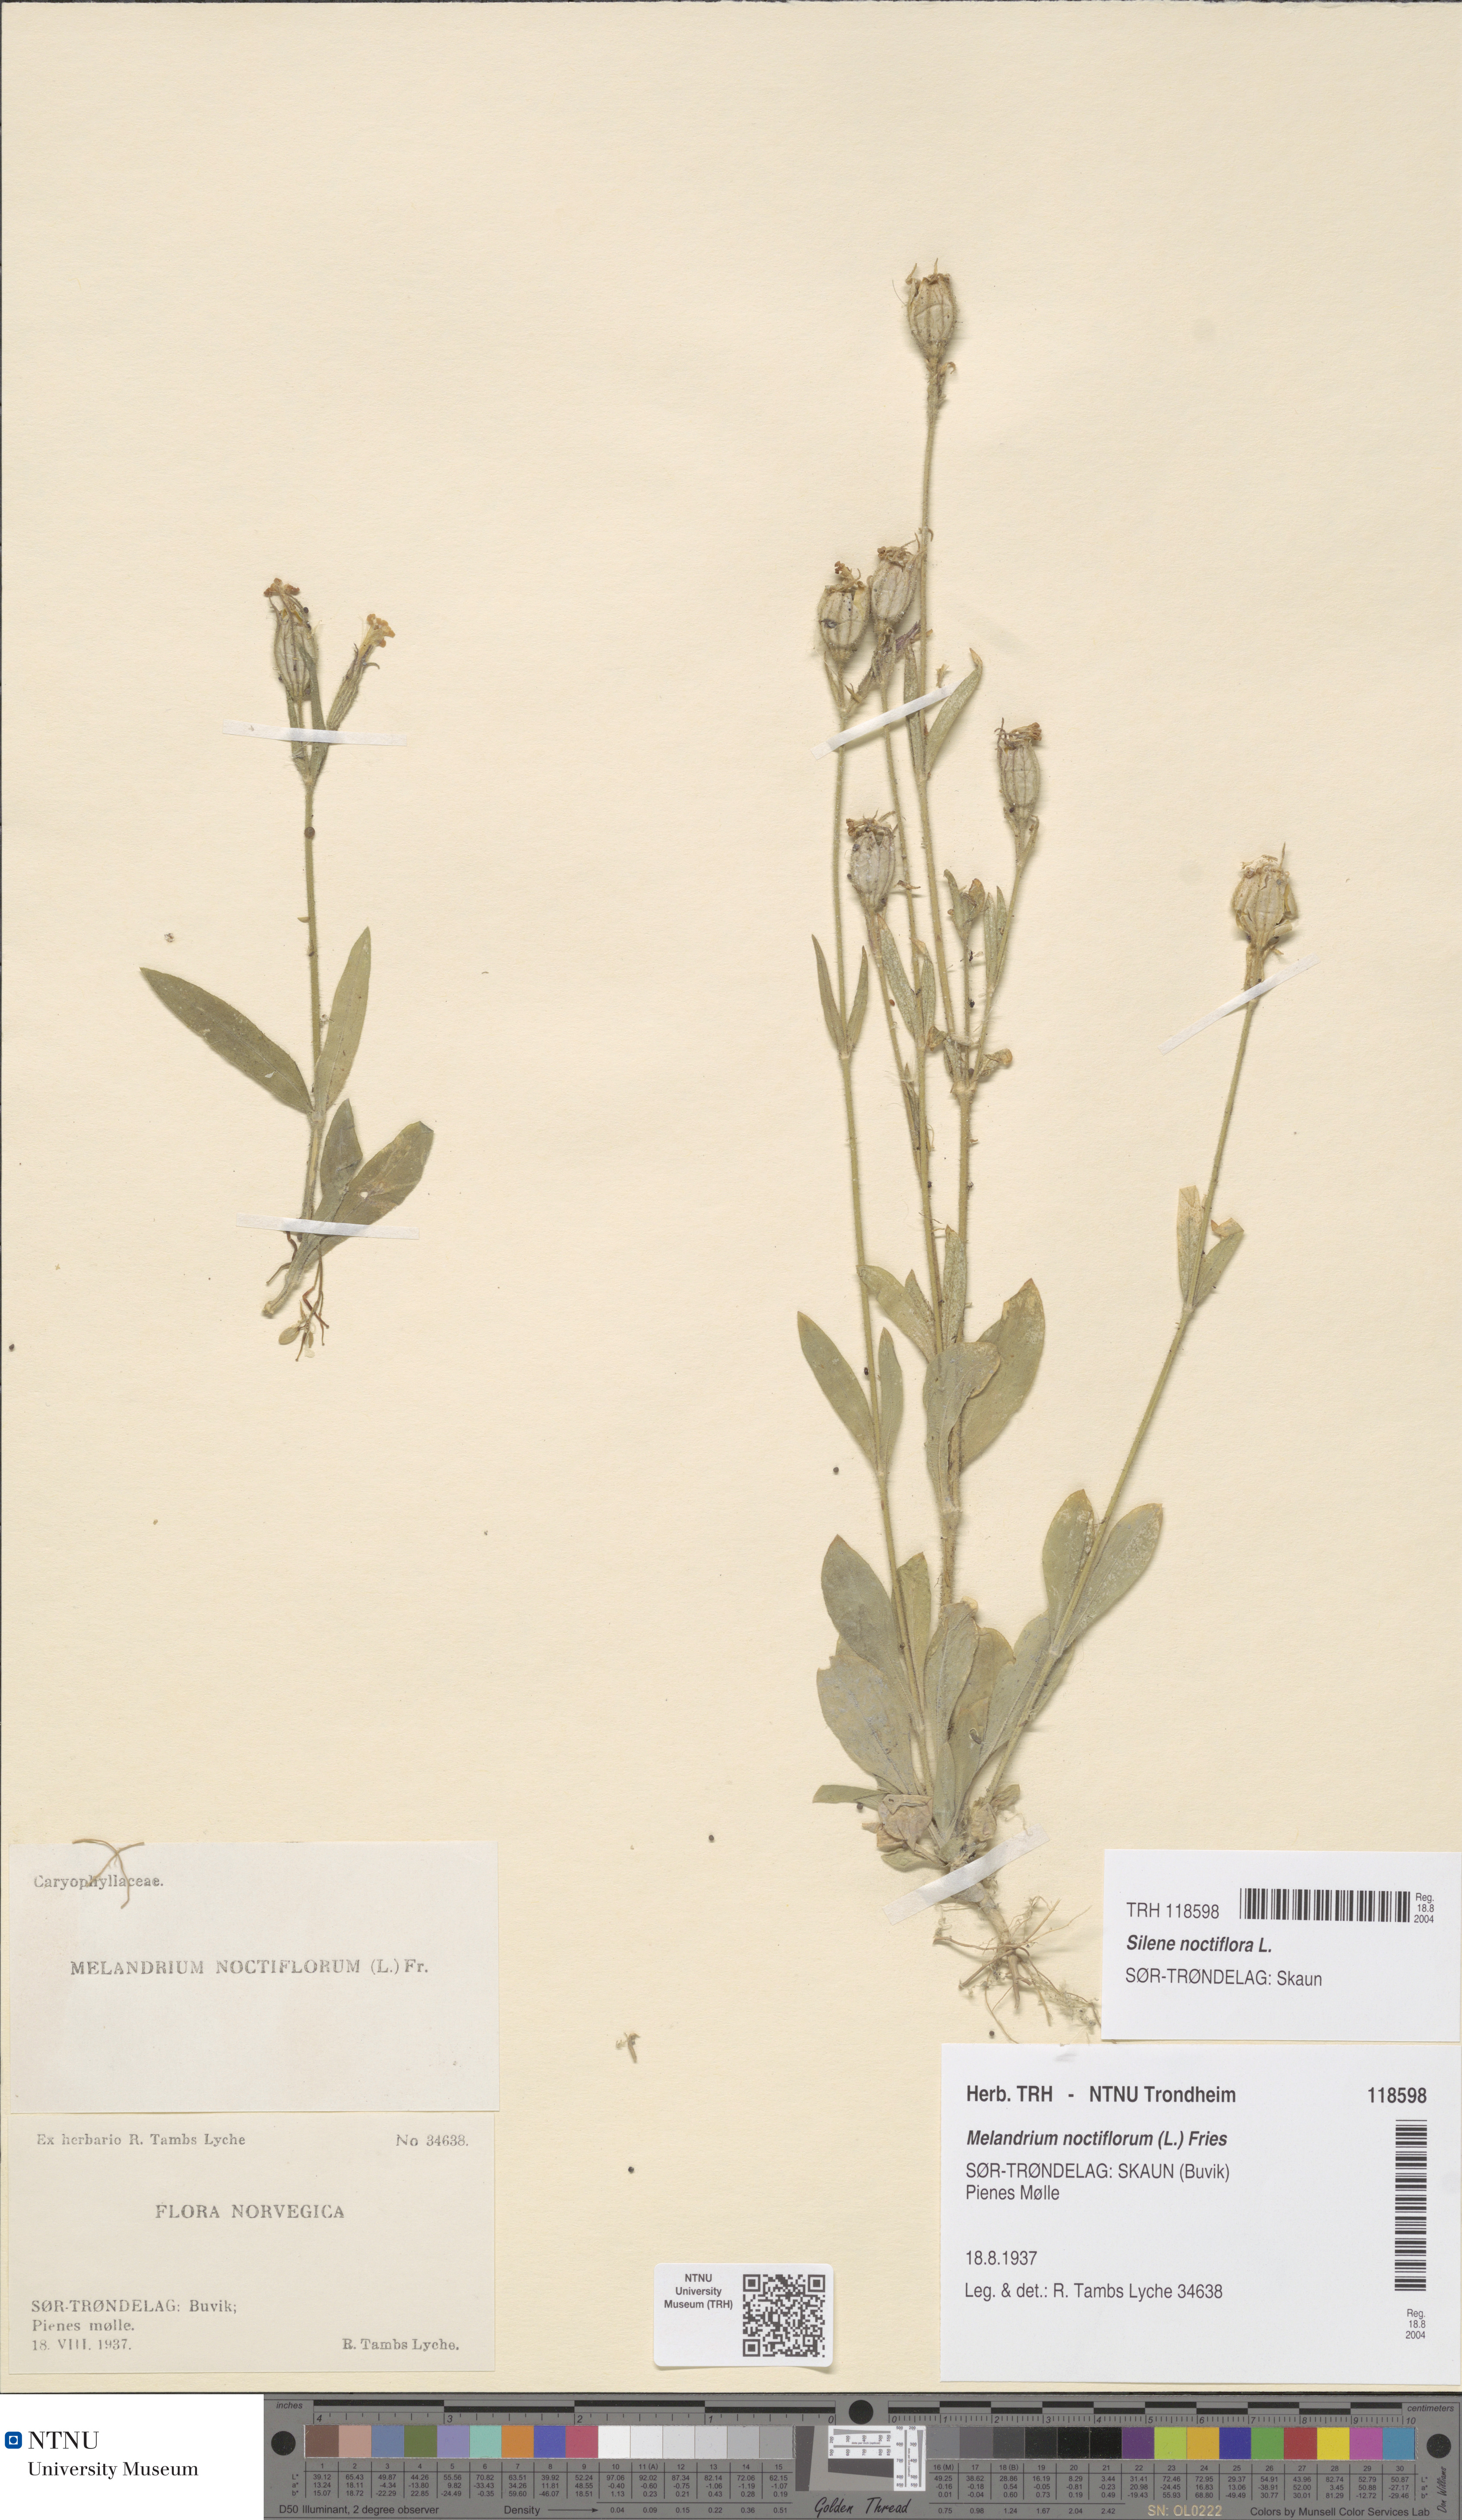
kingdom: Plantae
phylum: Tracheophyta
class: Magnoliopsida
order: Caryophyllales
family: Caryophyllaceae
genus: Silene
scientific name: Silene noctiflora
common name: Night-flowering catchfly
